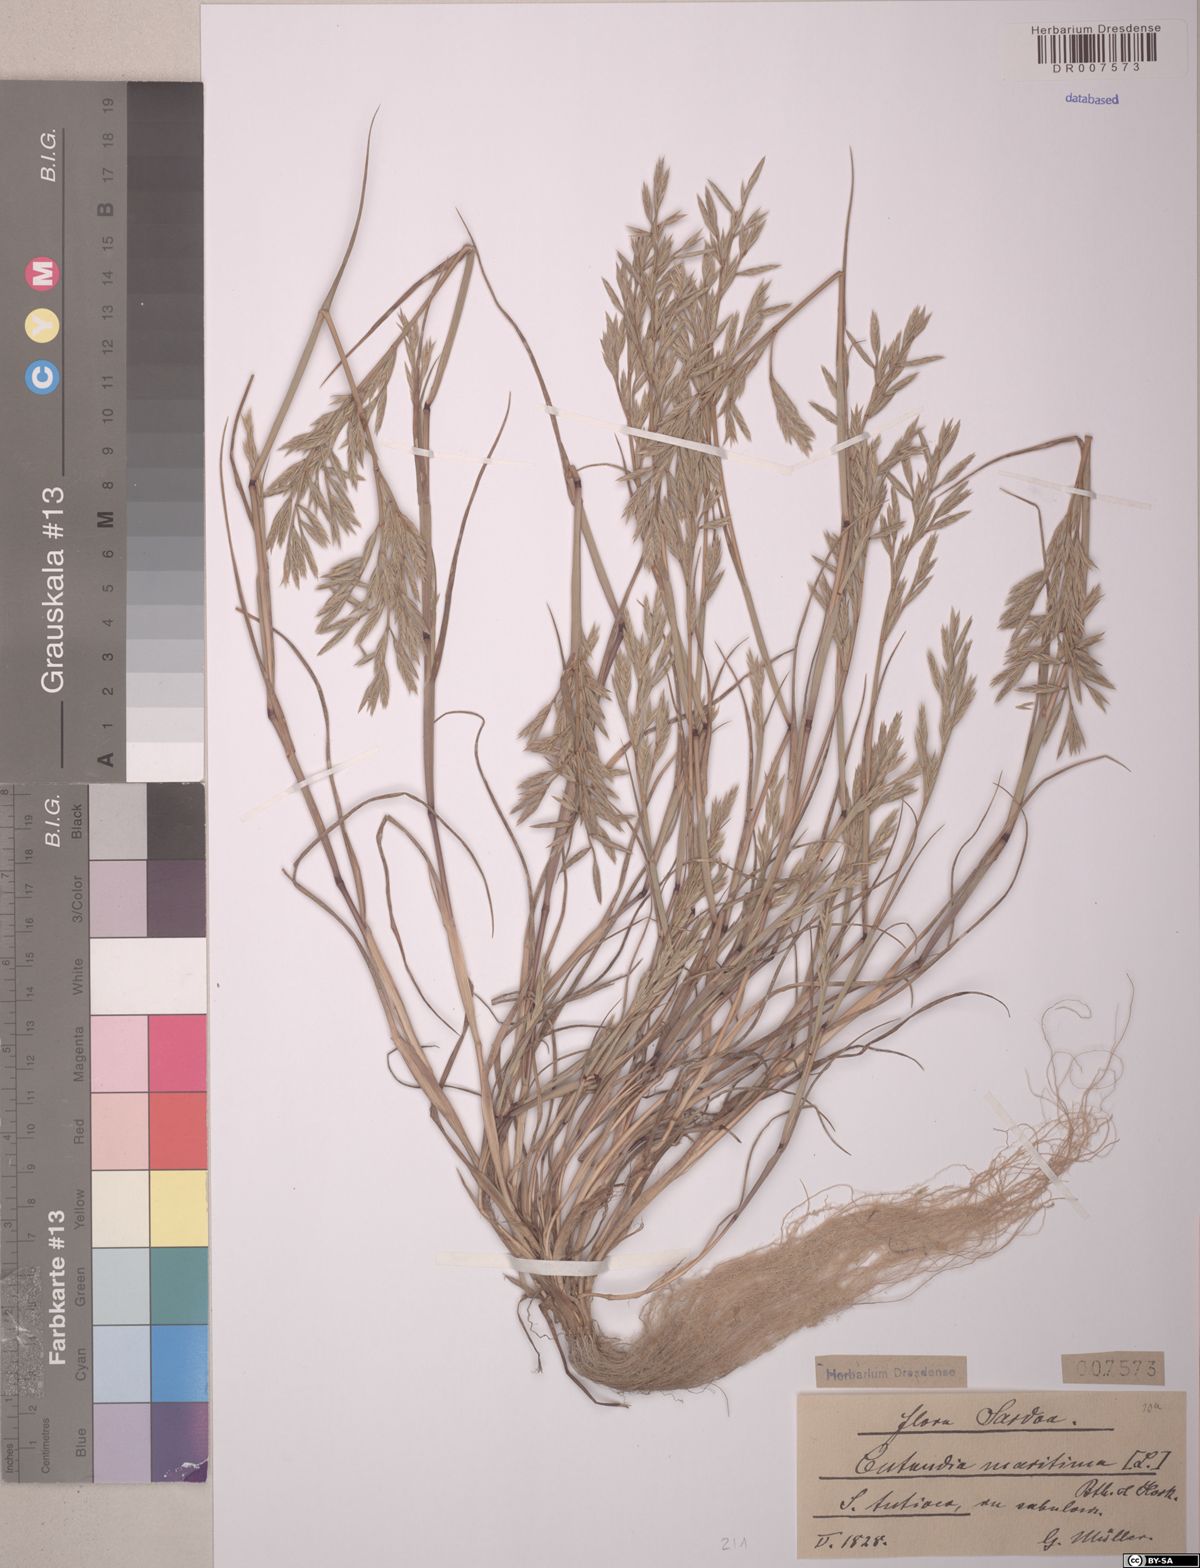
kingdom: Plantae
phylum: Tracheophyta
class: Liliopsida
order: Poales
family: Poaceae
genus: Cutandia
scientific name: Cutandia maritima
